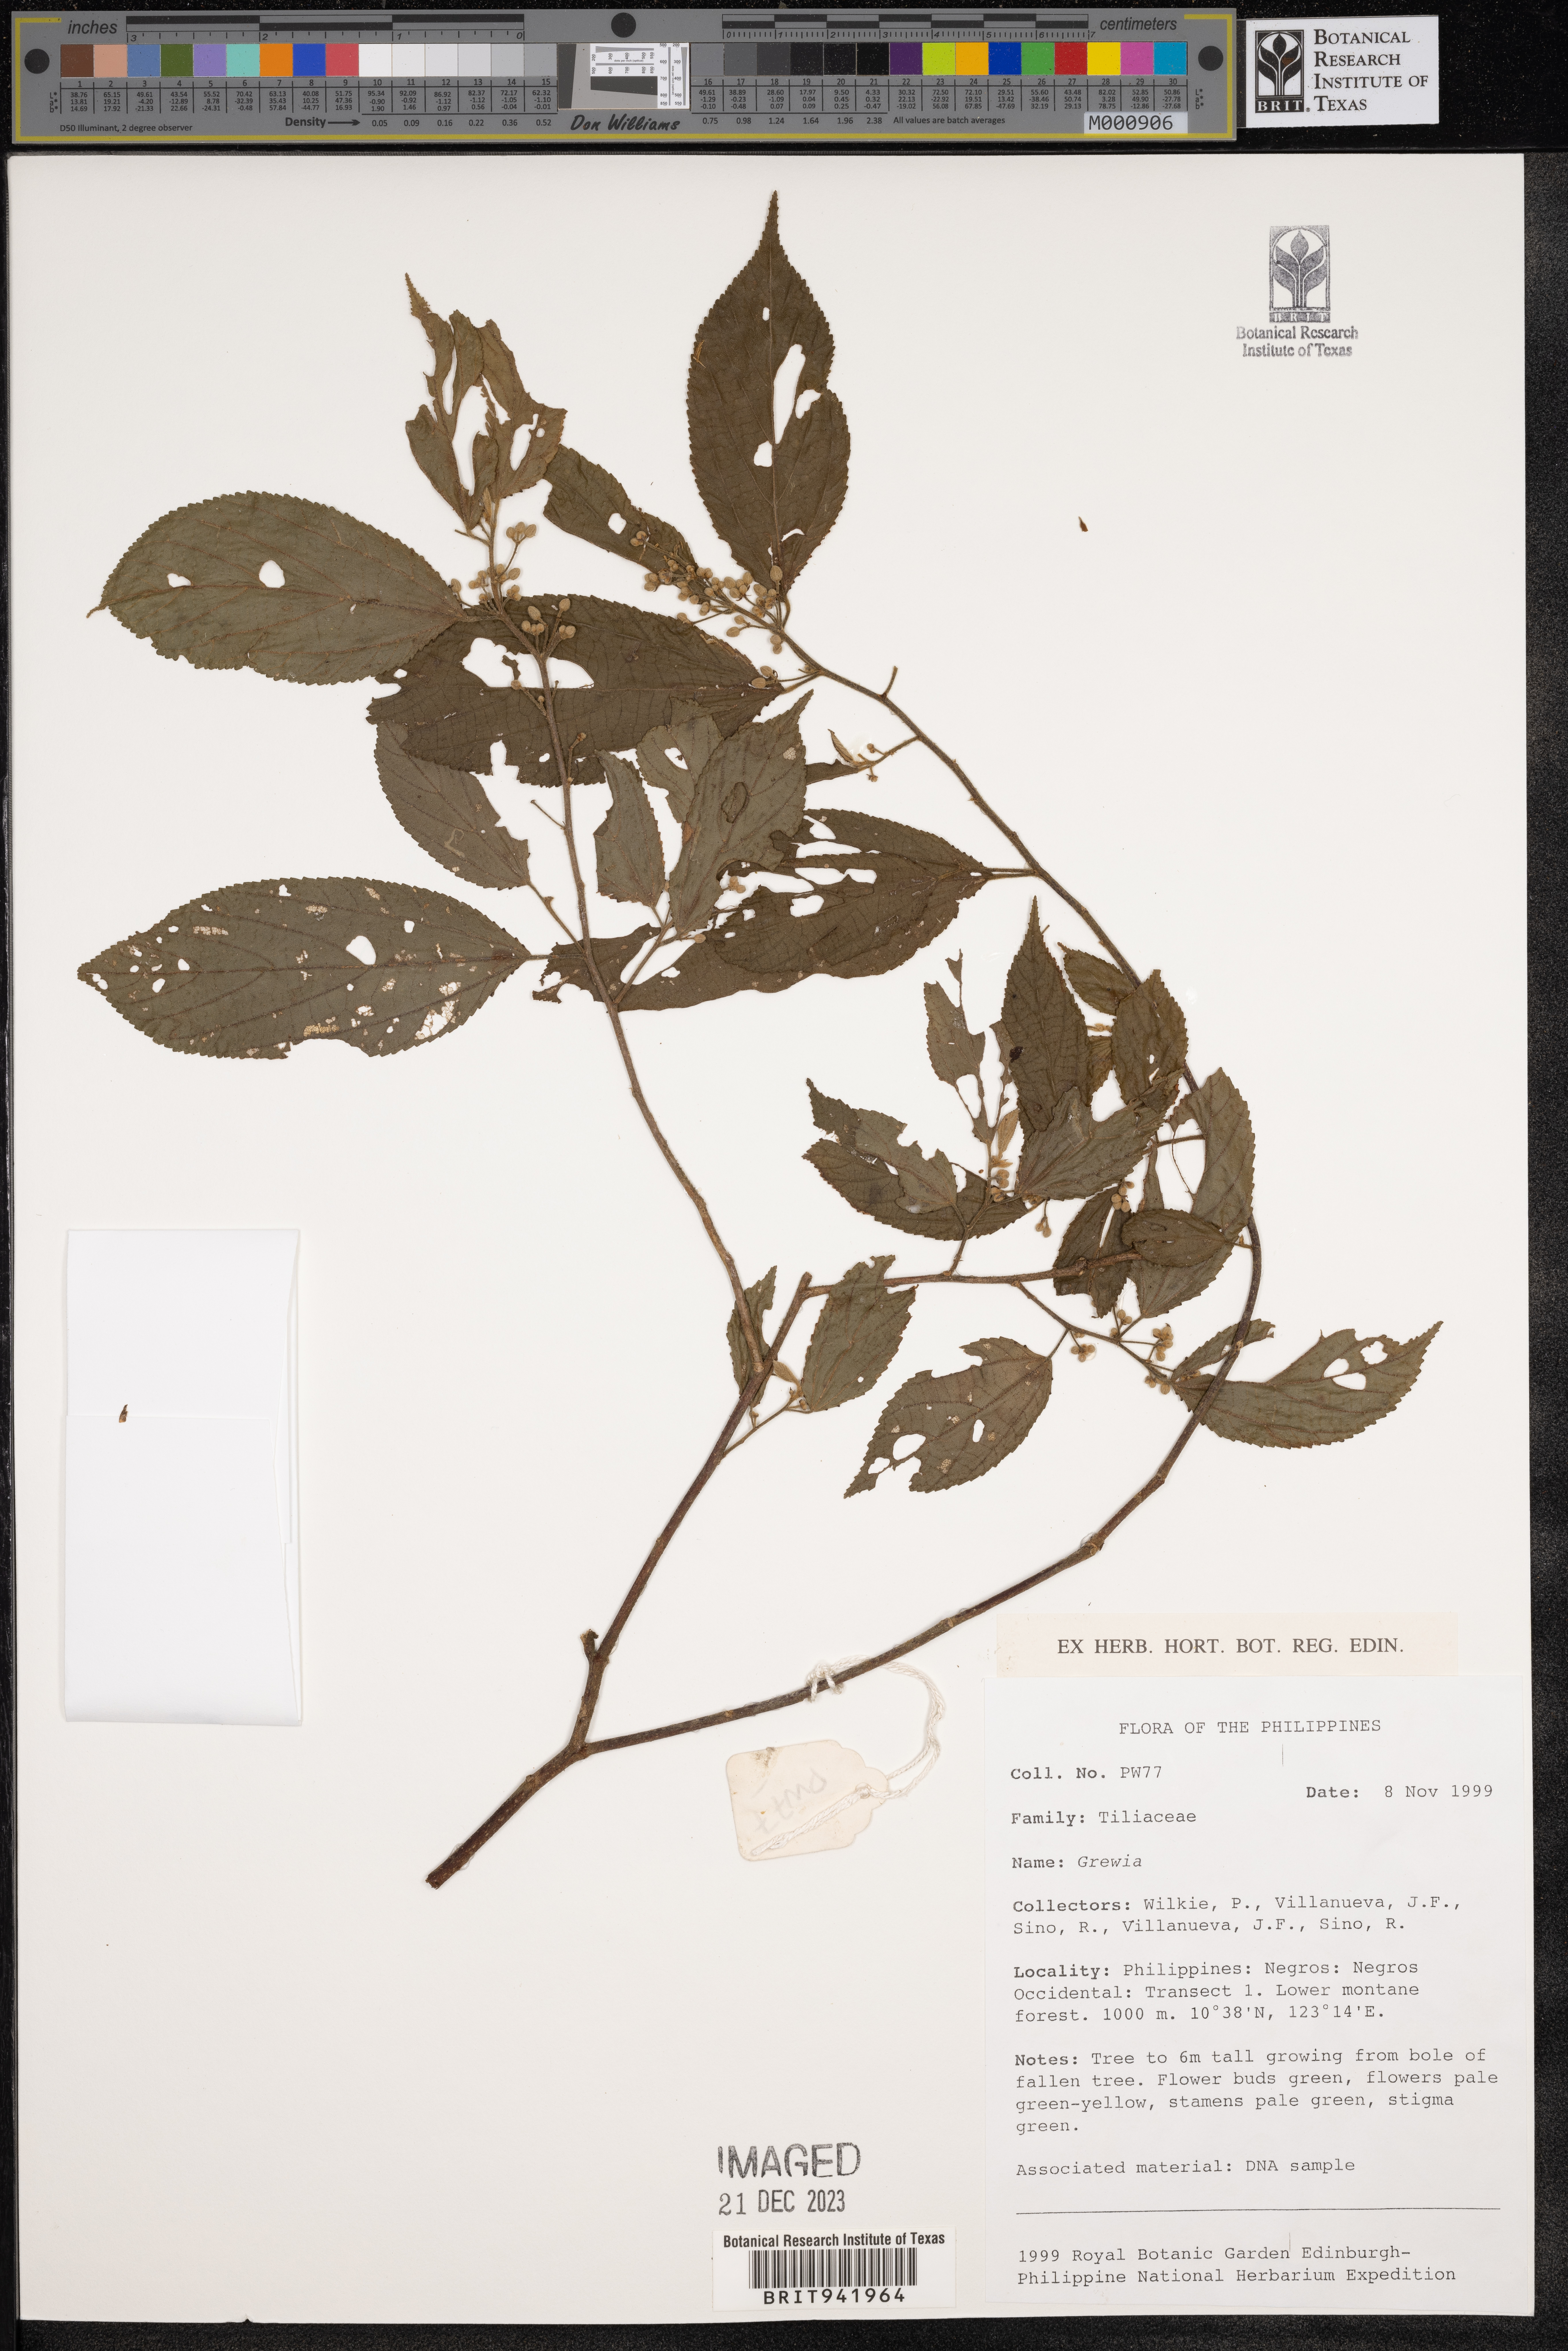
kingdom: Plantae
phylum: Tracheophyta
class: Magnoliopsida
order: Malvales
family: Malvaceae
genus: Grewia
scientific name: Grewia
